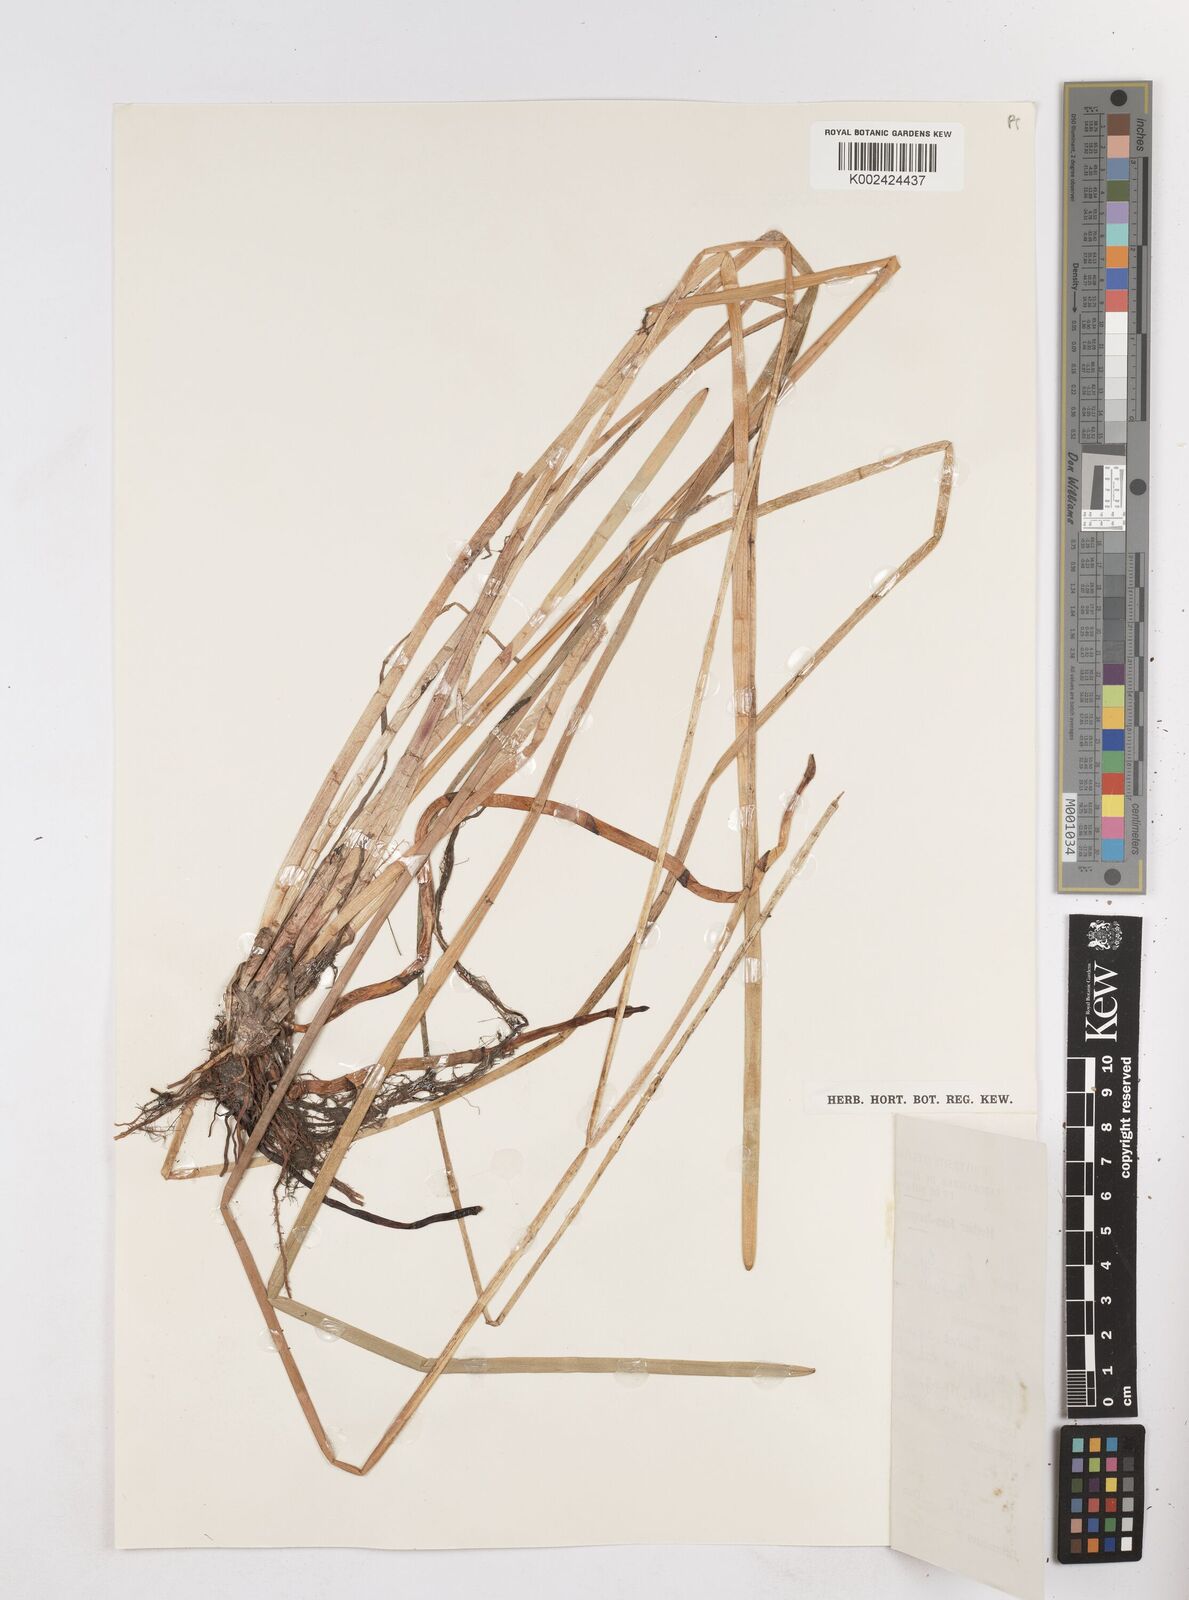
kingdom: Plantae
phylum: Tracheophyta
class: Liliopsida
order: Poales
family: Cyperaceae
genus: Eleocharis
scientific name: Eleocharis
